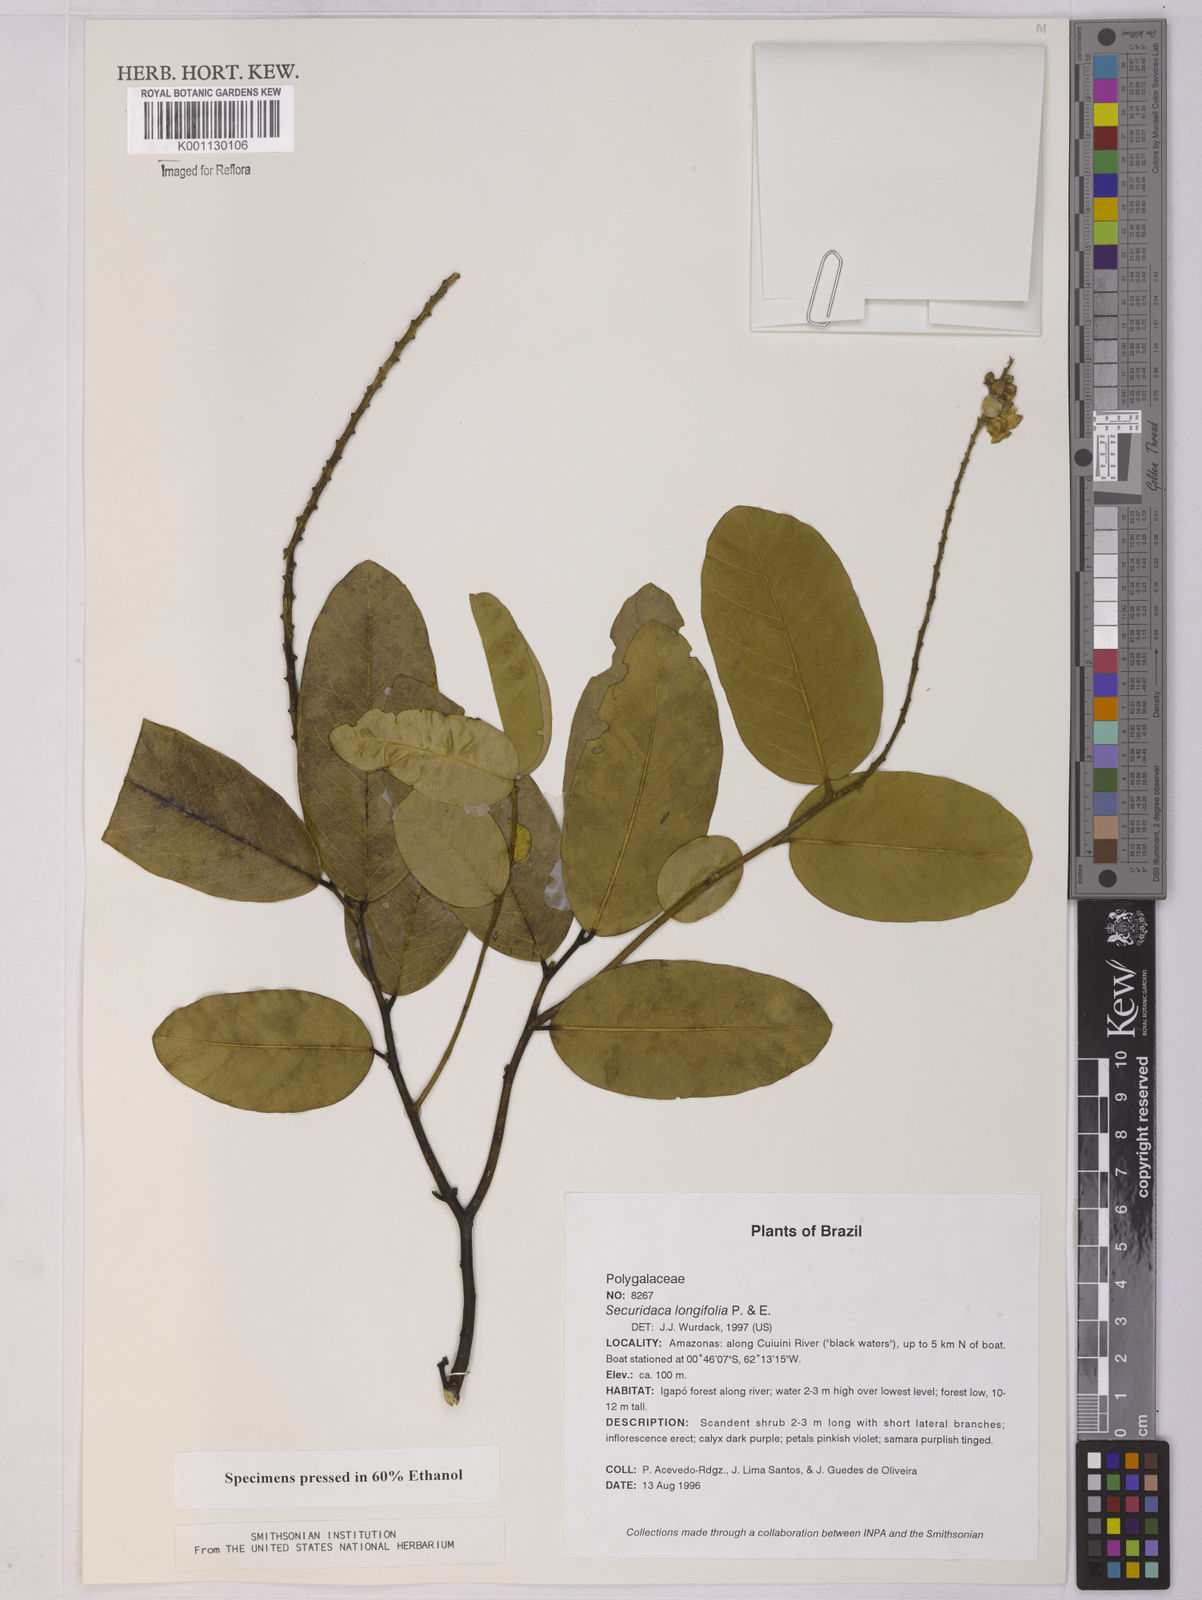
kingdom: Plantae
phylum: Tracheophyta
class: Magnoliopsida
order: Fabales
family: Polygalaceae
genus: Securidaca
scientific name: Securidaca longifolia
